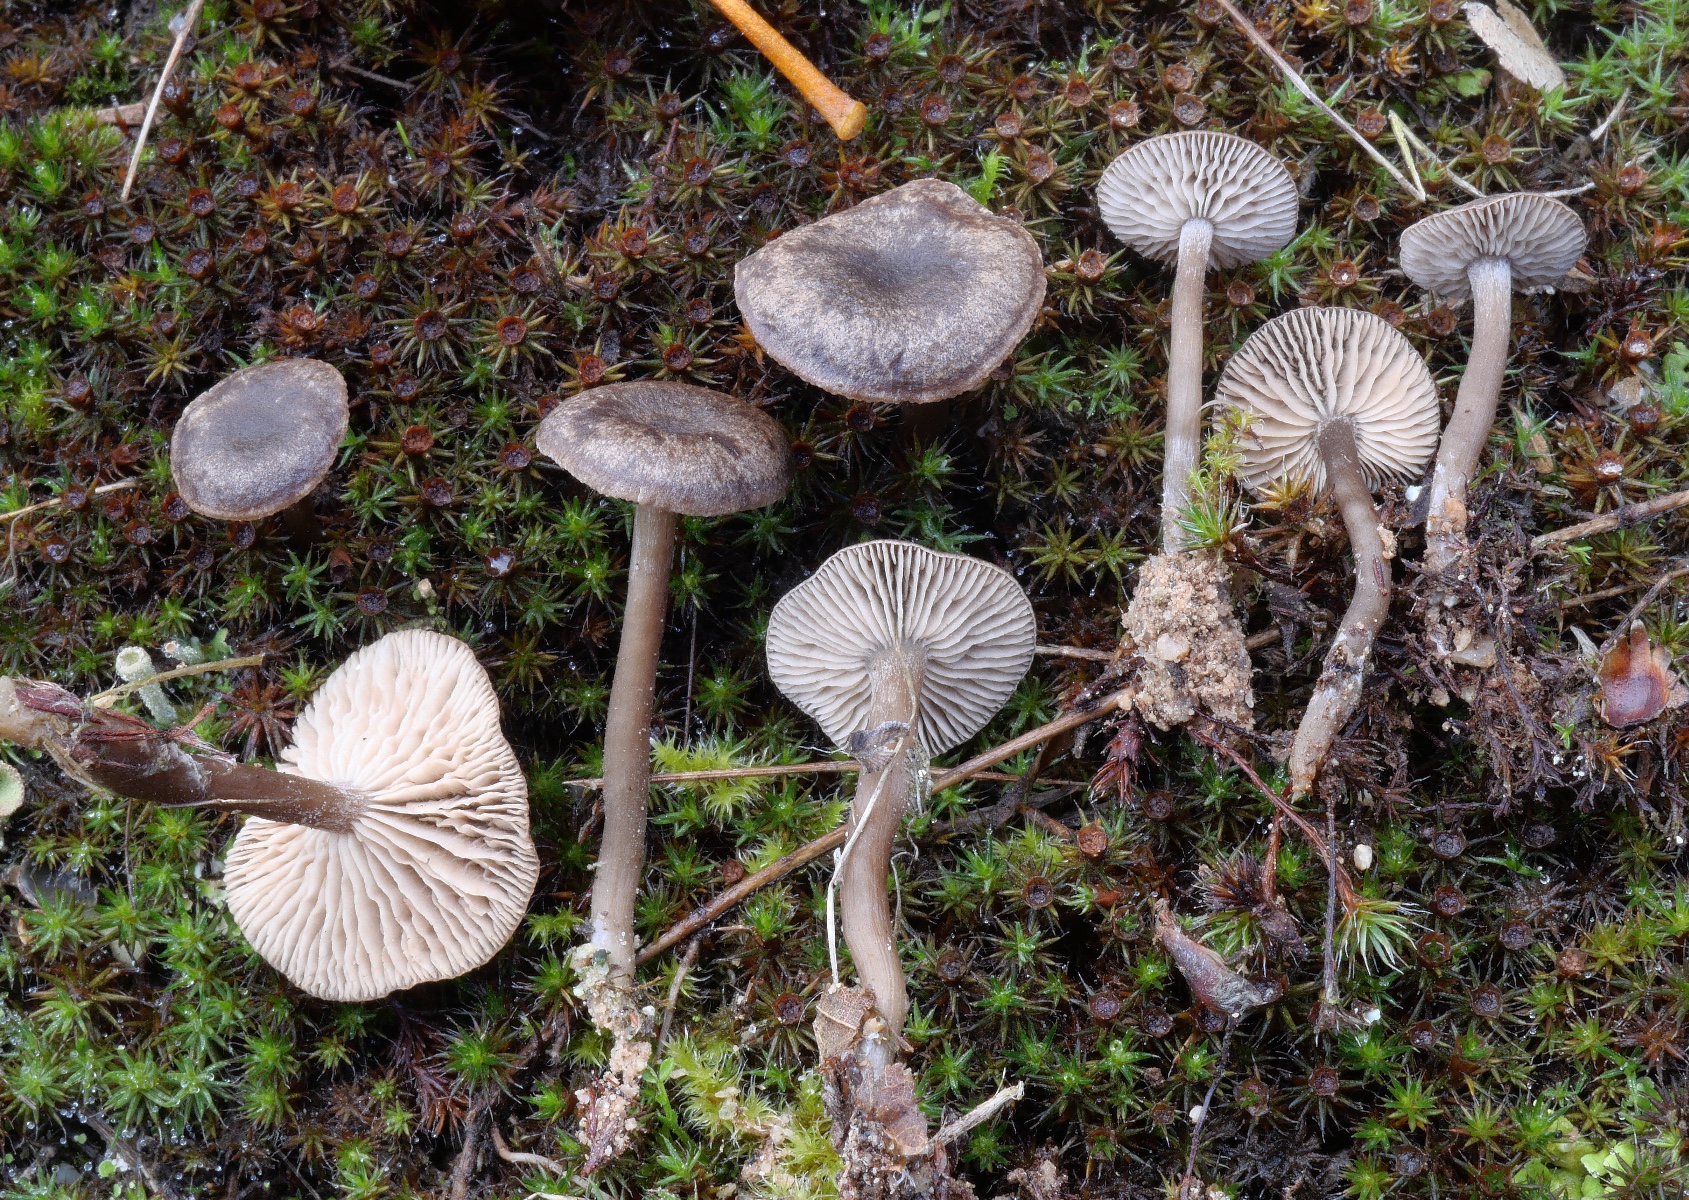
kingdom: Fungi
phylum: Basidiomycota
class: Agaricomycetes
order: Agaricales
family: Entolomataceae
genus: Clitopilus
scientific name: Clitopilus caelatus
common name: gråbrun troldhat
